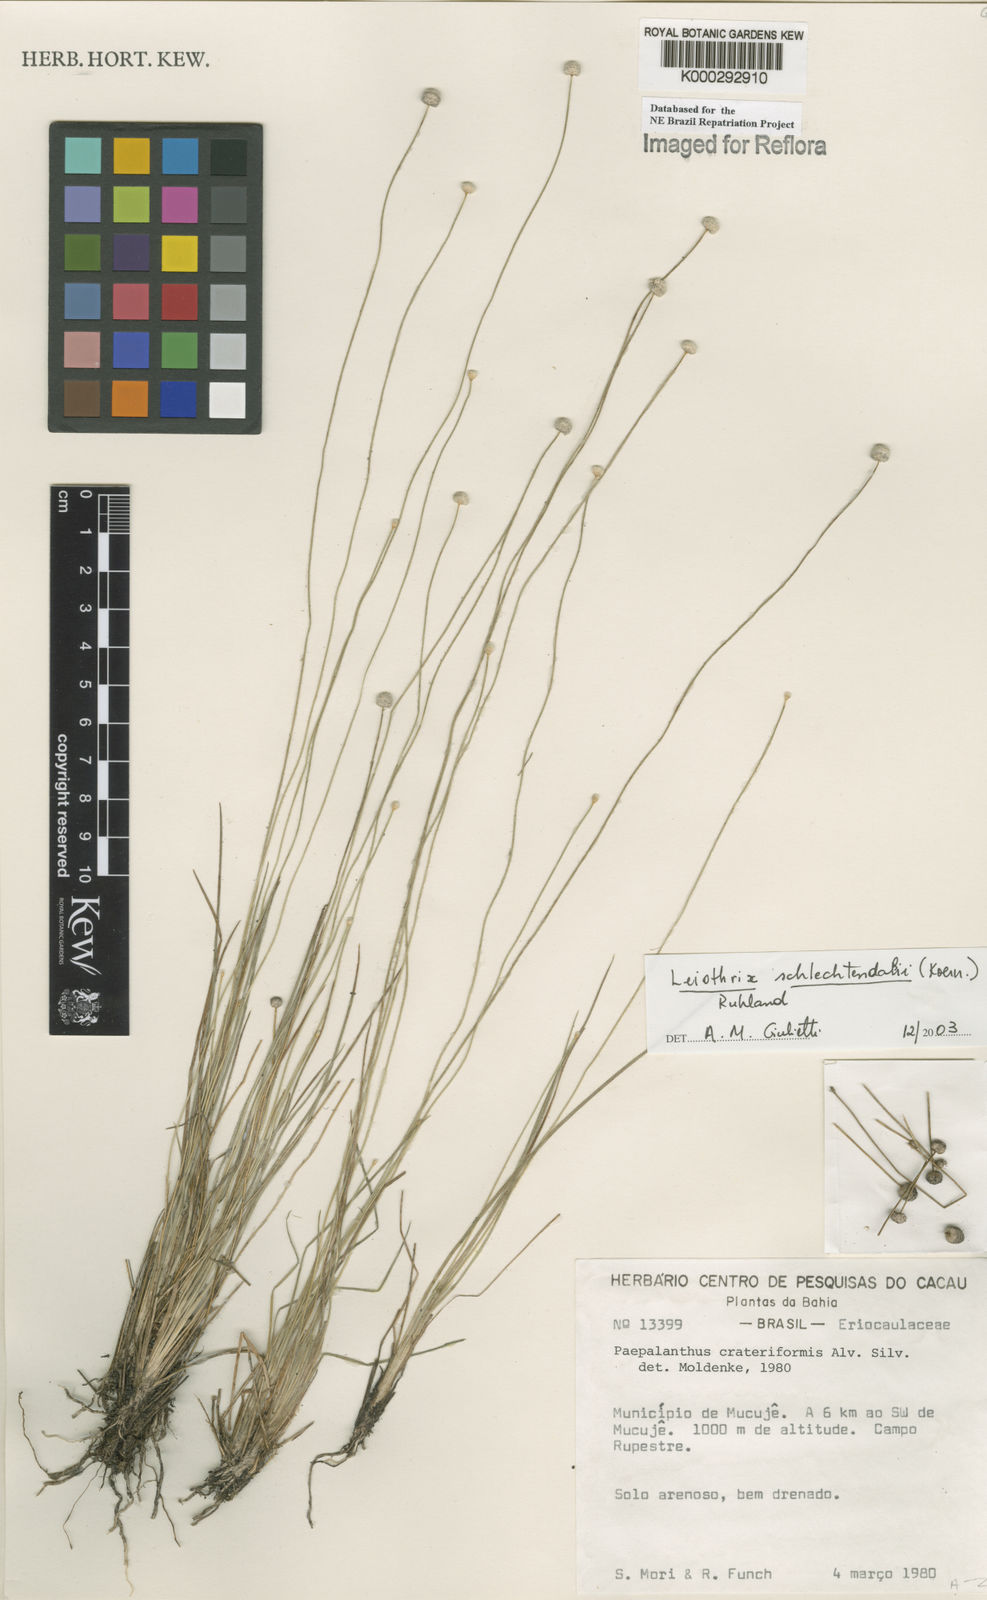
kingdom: Plantae
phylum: Tracheophyta
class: Liliopsida
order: Poales
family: Eriocaulaceae
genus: Leiothrix
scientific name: Leiothrix schlechtendalii
